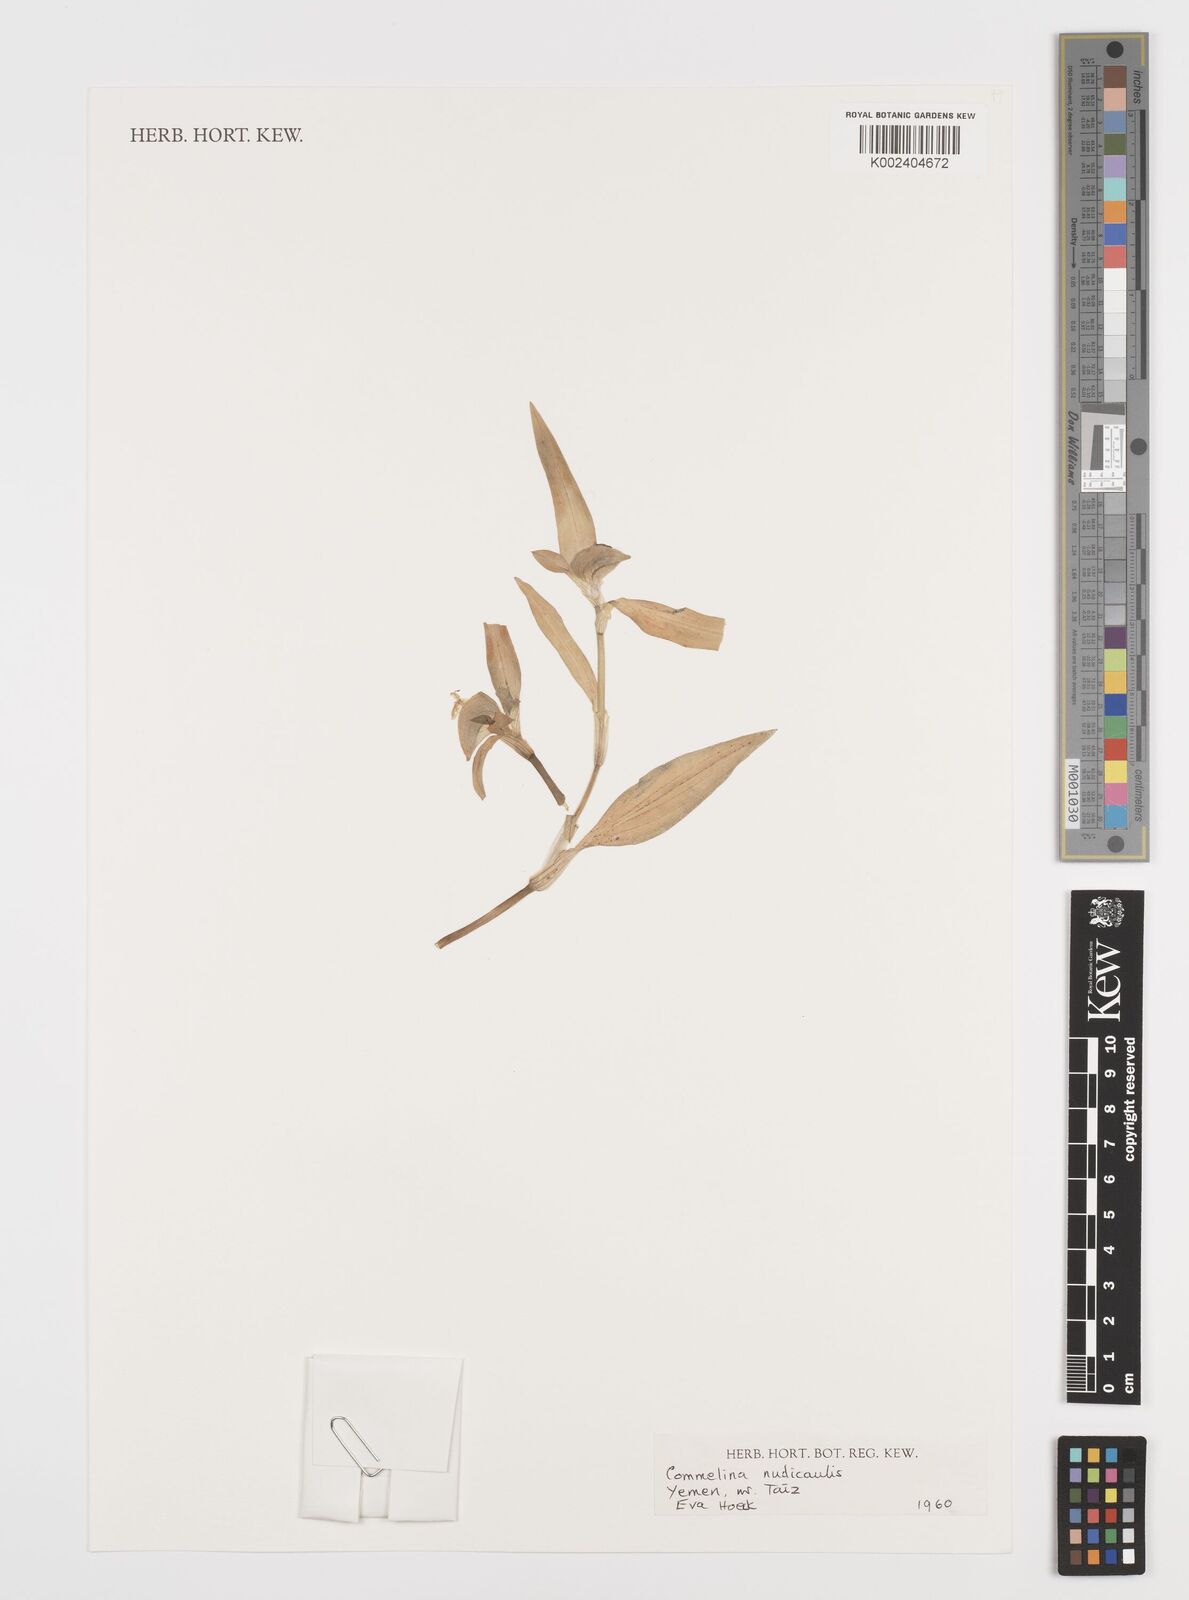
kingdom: Plantae
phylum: Tracheophyta
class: Liliopsida
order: Commelinales
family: Commelinaceae
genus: Murdannia
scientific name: Murdannia nudiflora
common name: Nakedstem dewflower
